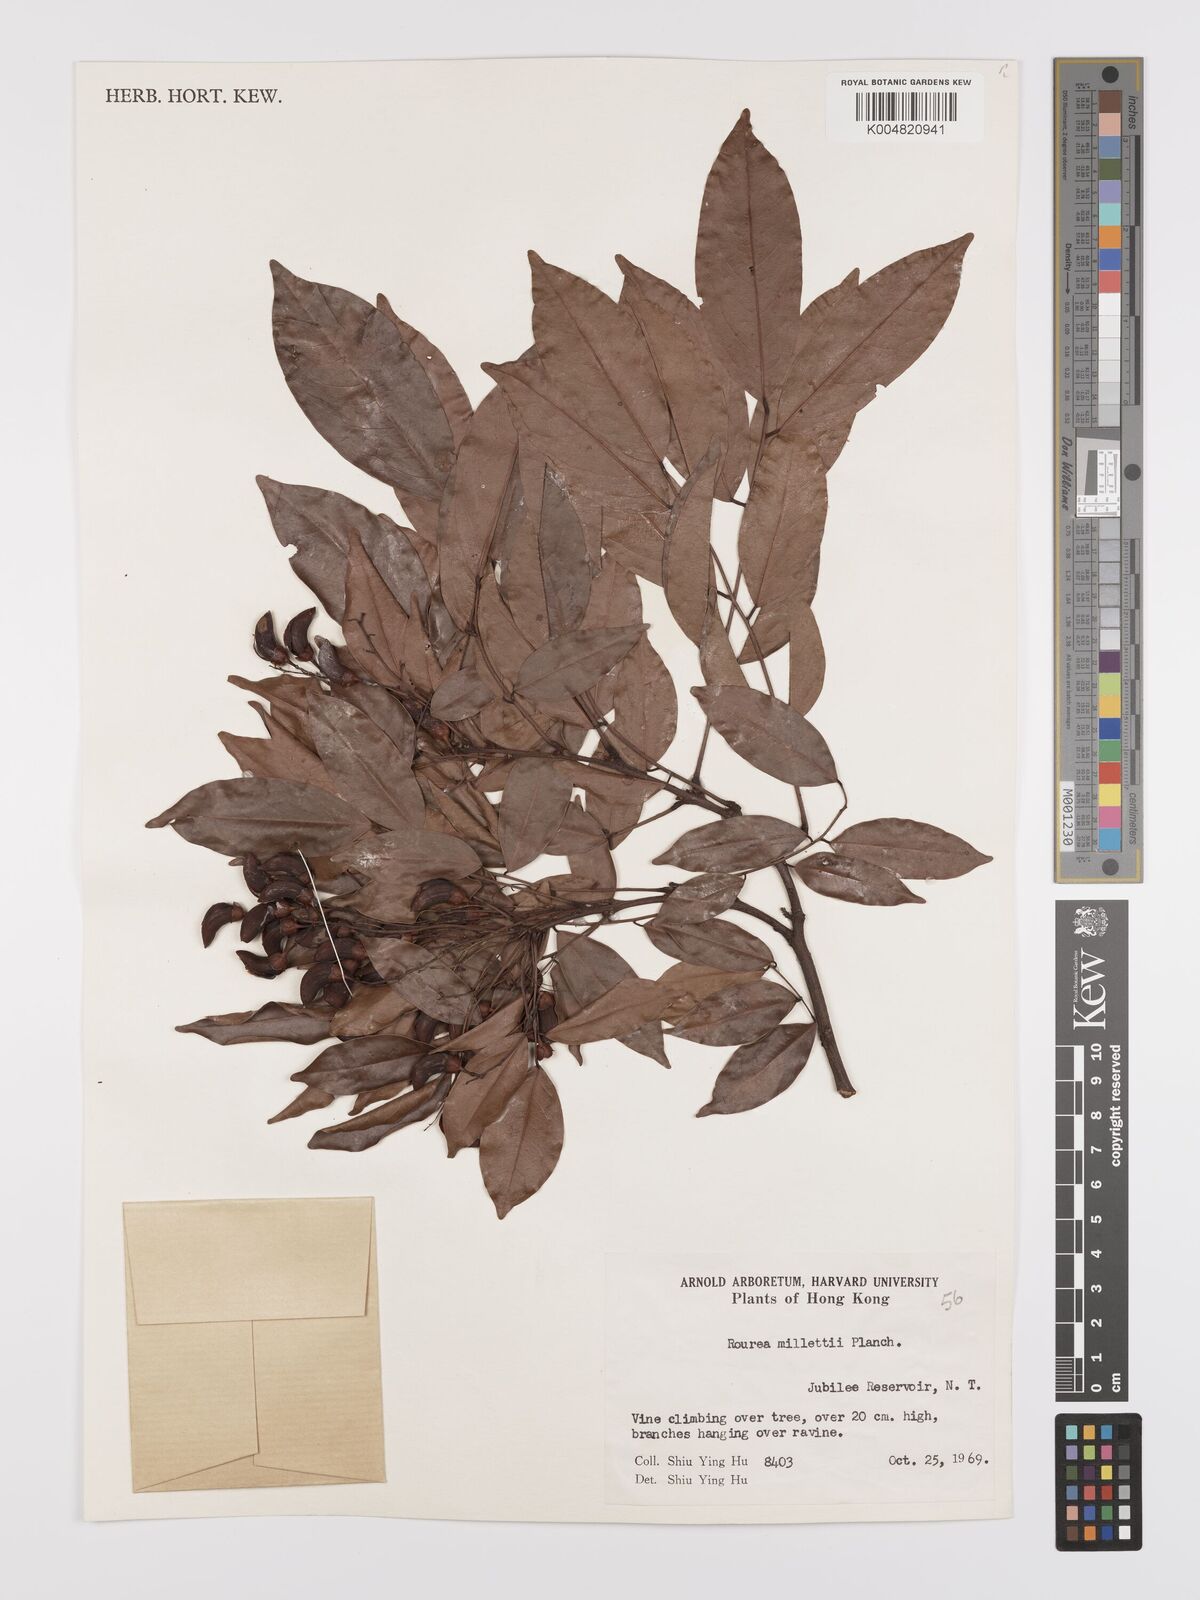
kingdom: Plantae
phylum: Tracheophyta
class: Magnoliopsida
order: Oxalidales
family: Connaraceae
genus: Rourea
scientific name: Rourea
